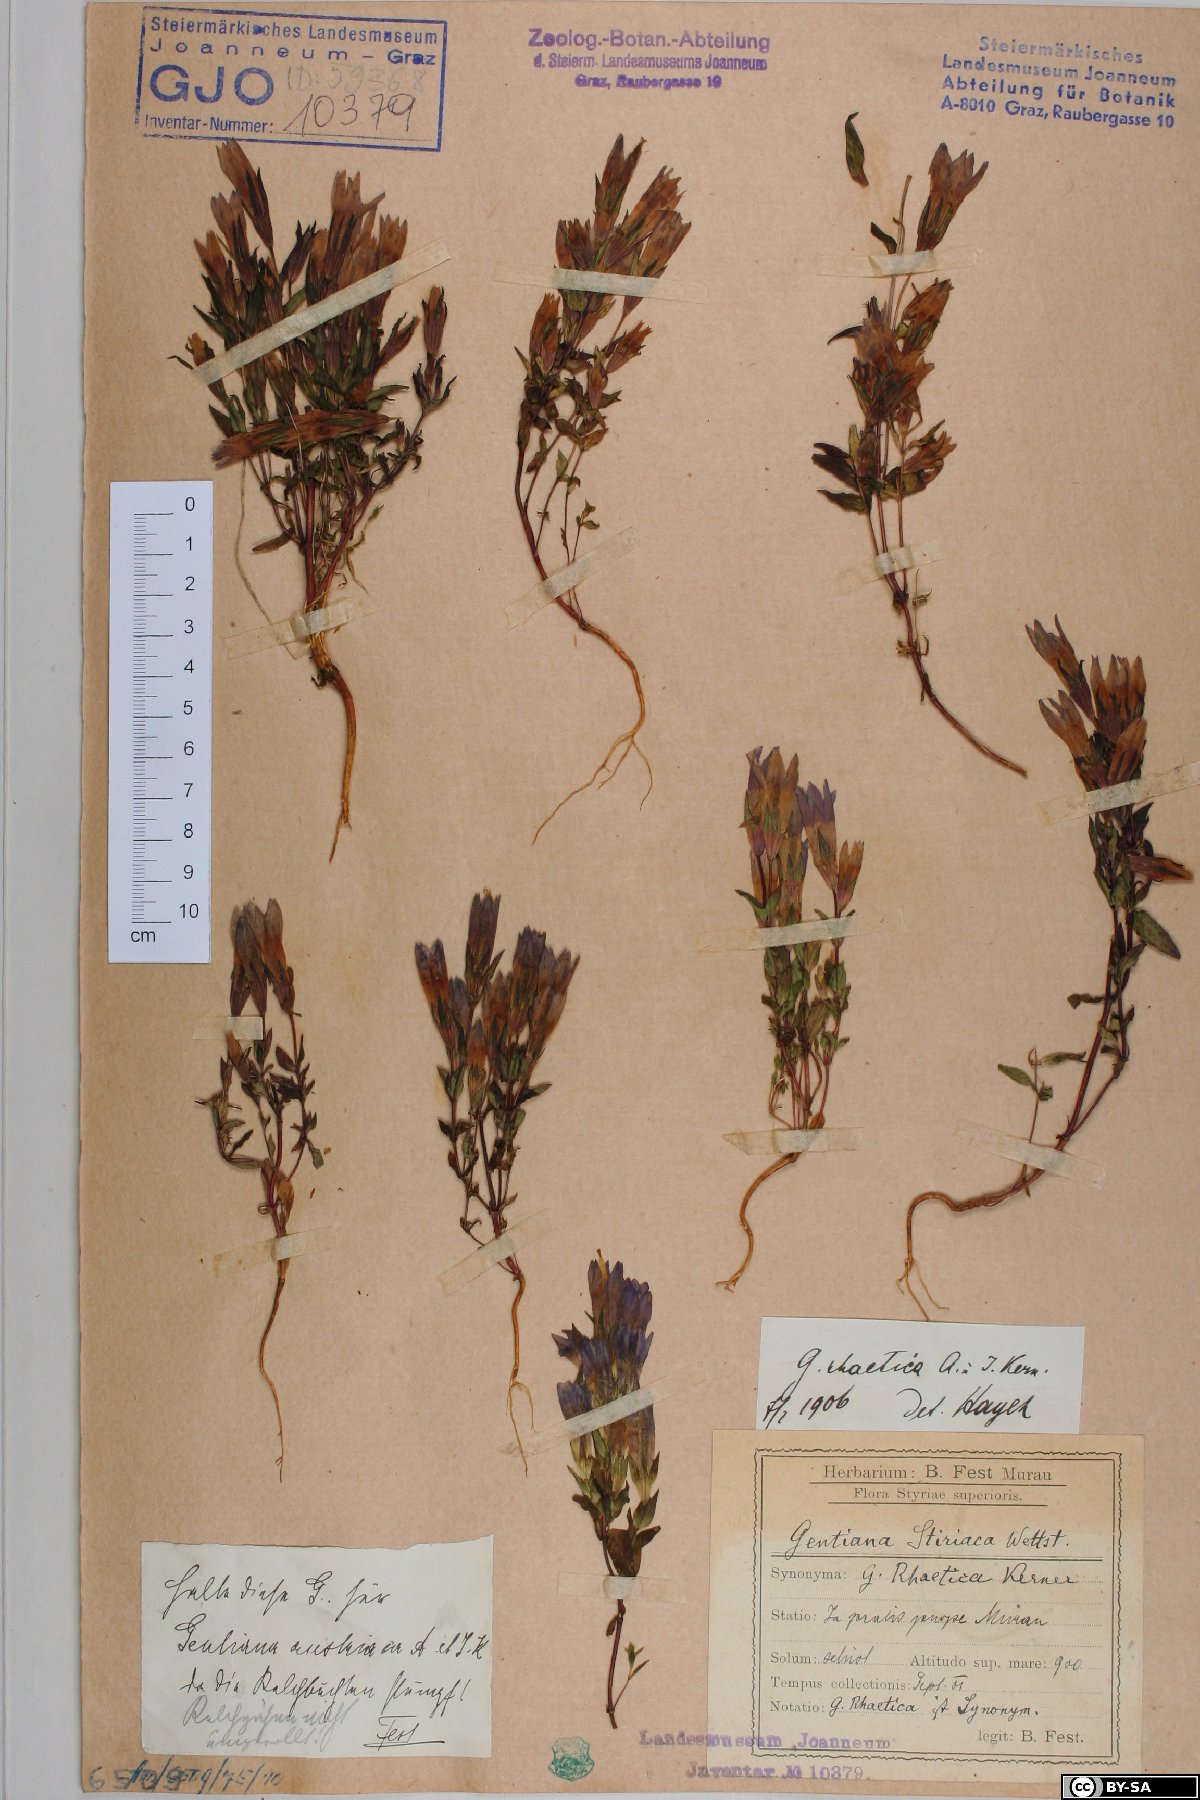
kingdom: Plantae
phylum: Tracheophyta
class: Magnoliopsida
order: Gentianales
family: Gentianaceae
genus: Gentianella
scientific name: Gentianella rhaetica
